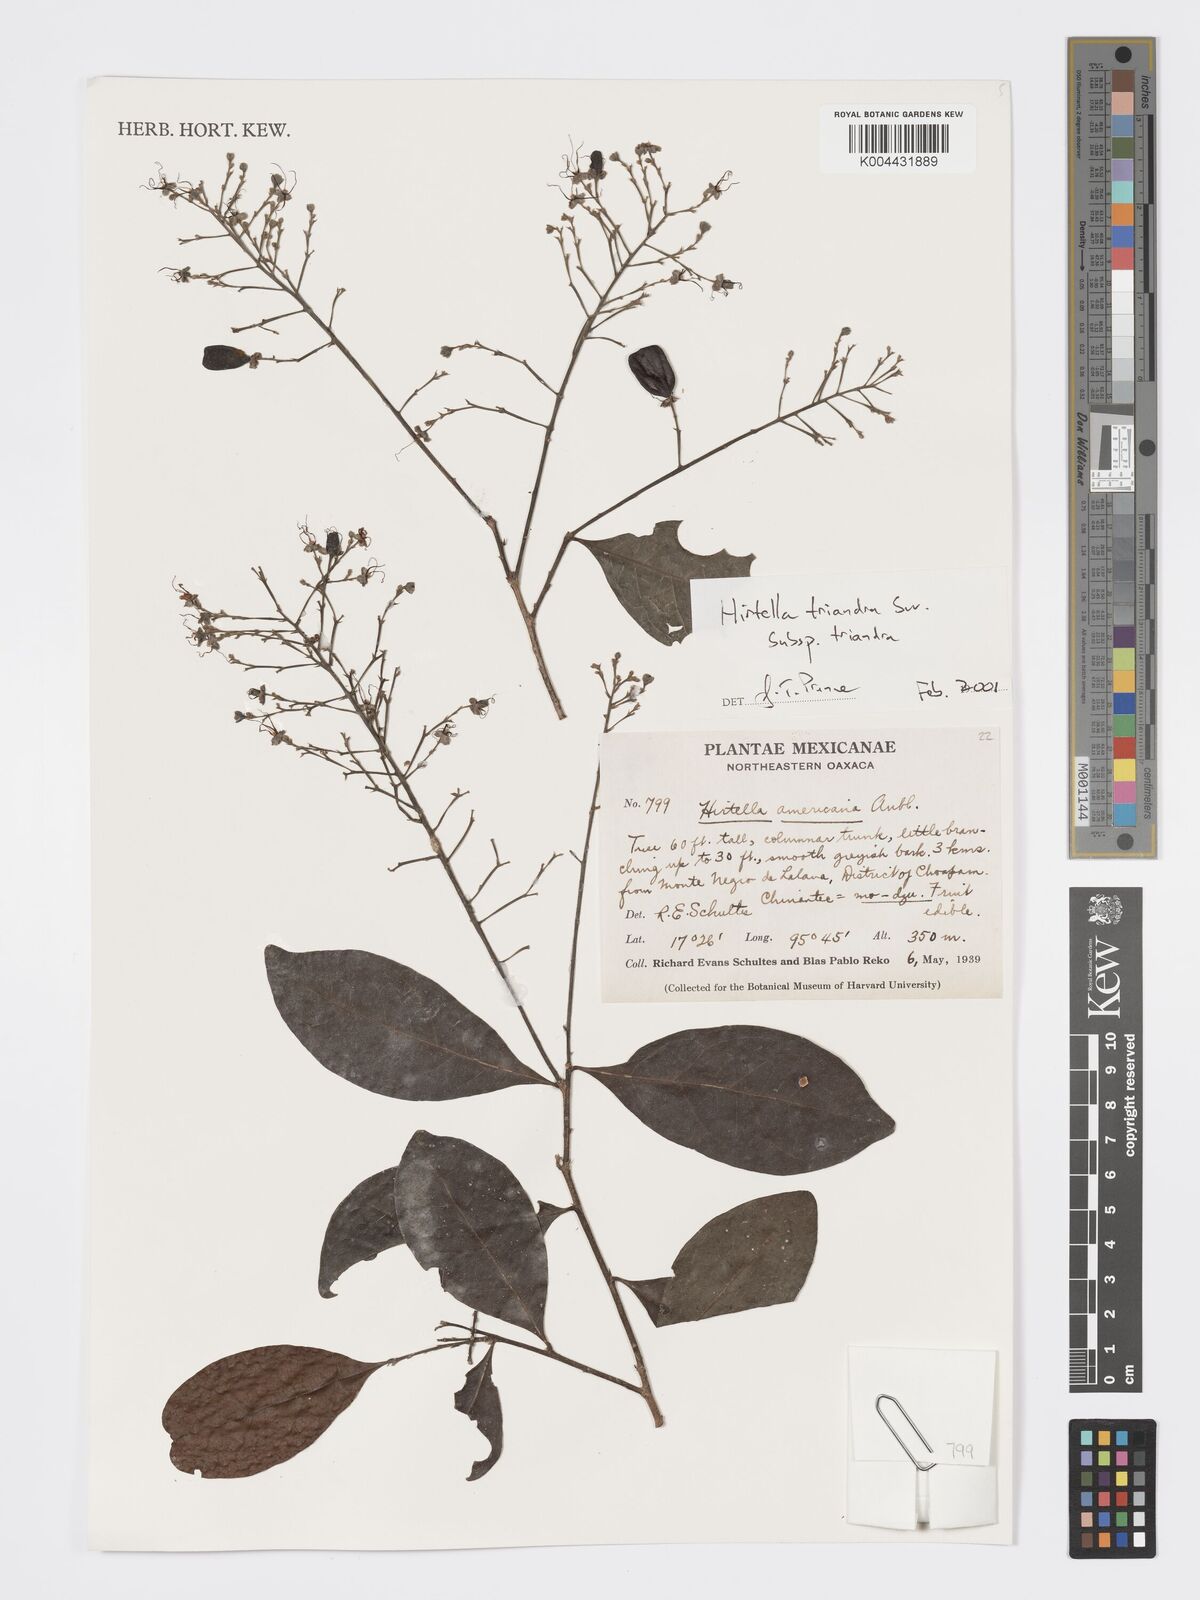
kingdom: Plantae
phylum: Tracheophyta
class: Magnoliopsida
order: Malpighiales
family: Chrysobalanaceae
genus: Hirtella
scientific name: Hirtella triandra
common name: Hairy plum
